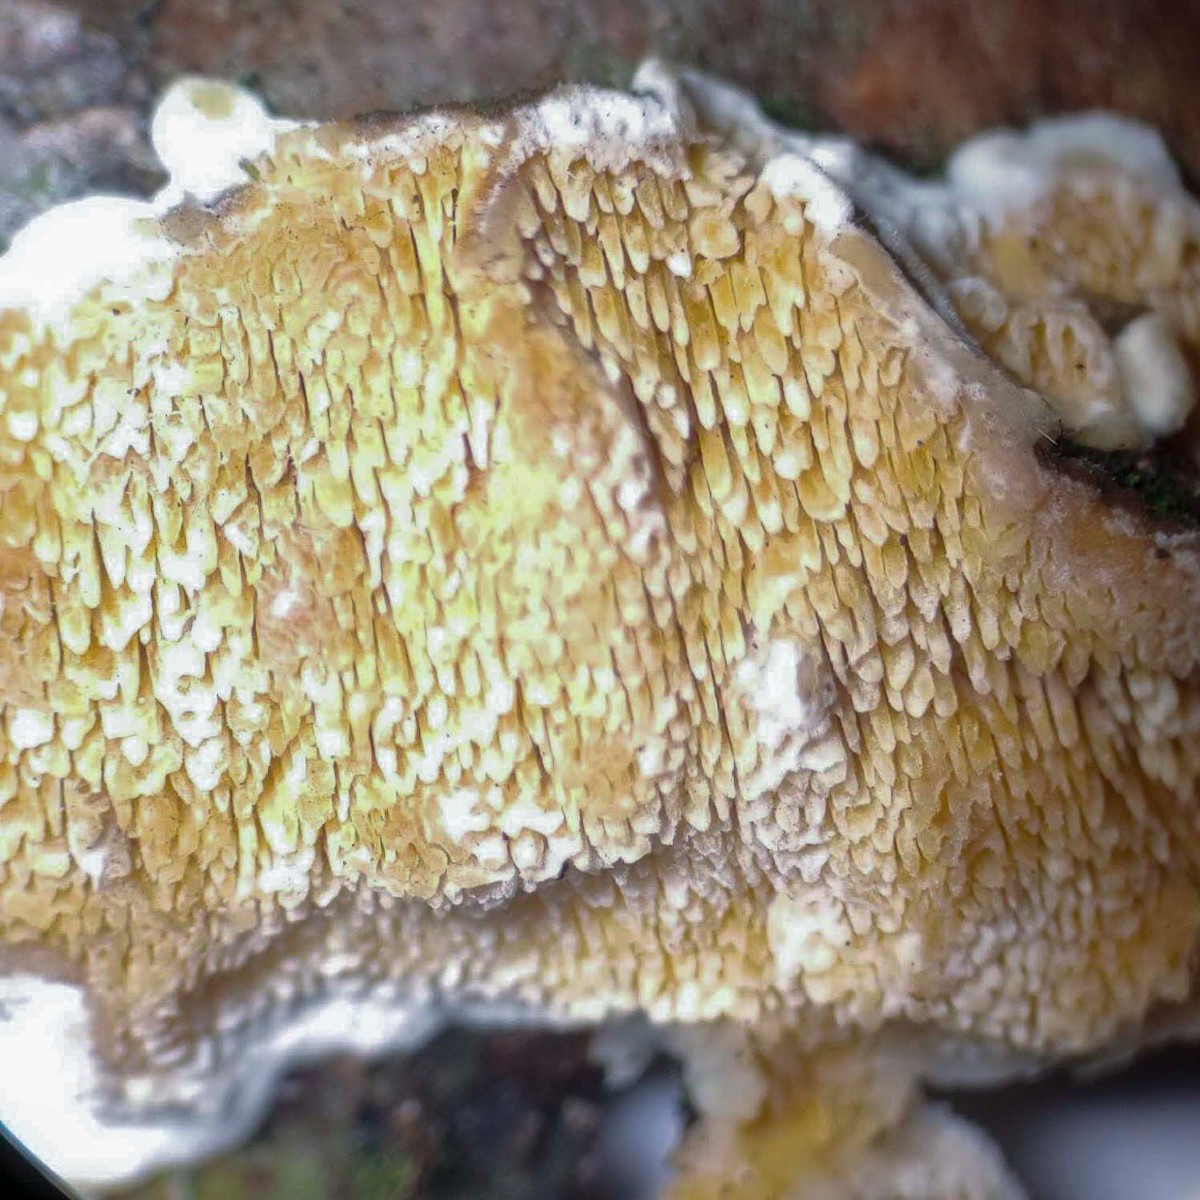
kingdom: Fungi
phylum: Basidiomycota
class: Agaricomycetes
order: Polyporales
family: Steccherinaceae
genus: Steccherinum
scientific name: Steccherinum bourdotii
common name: hat-skønpig
